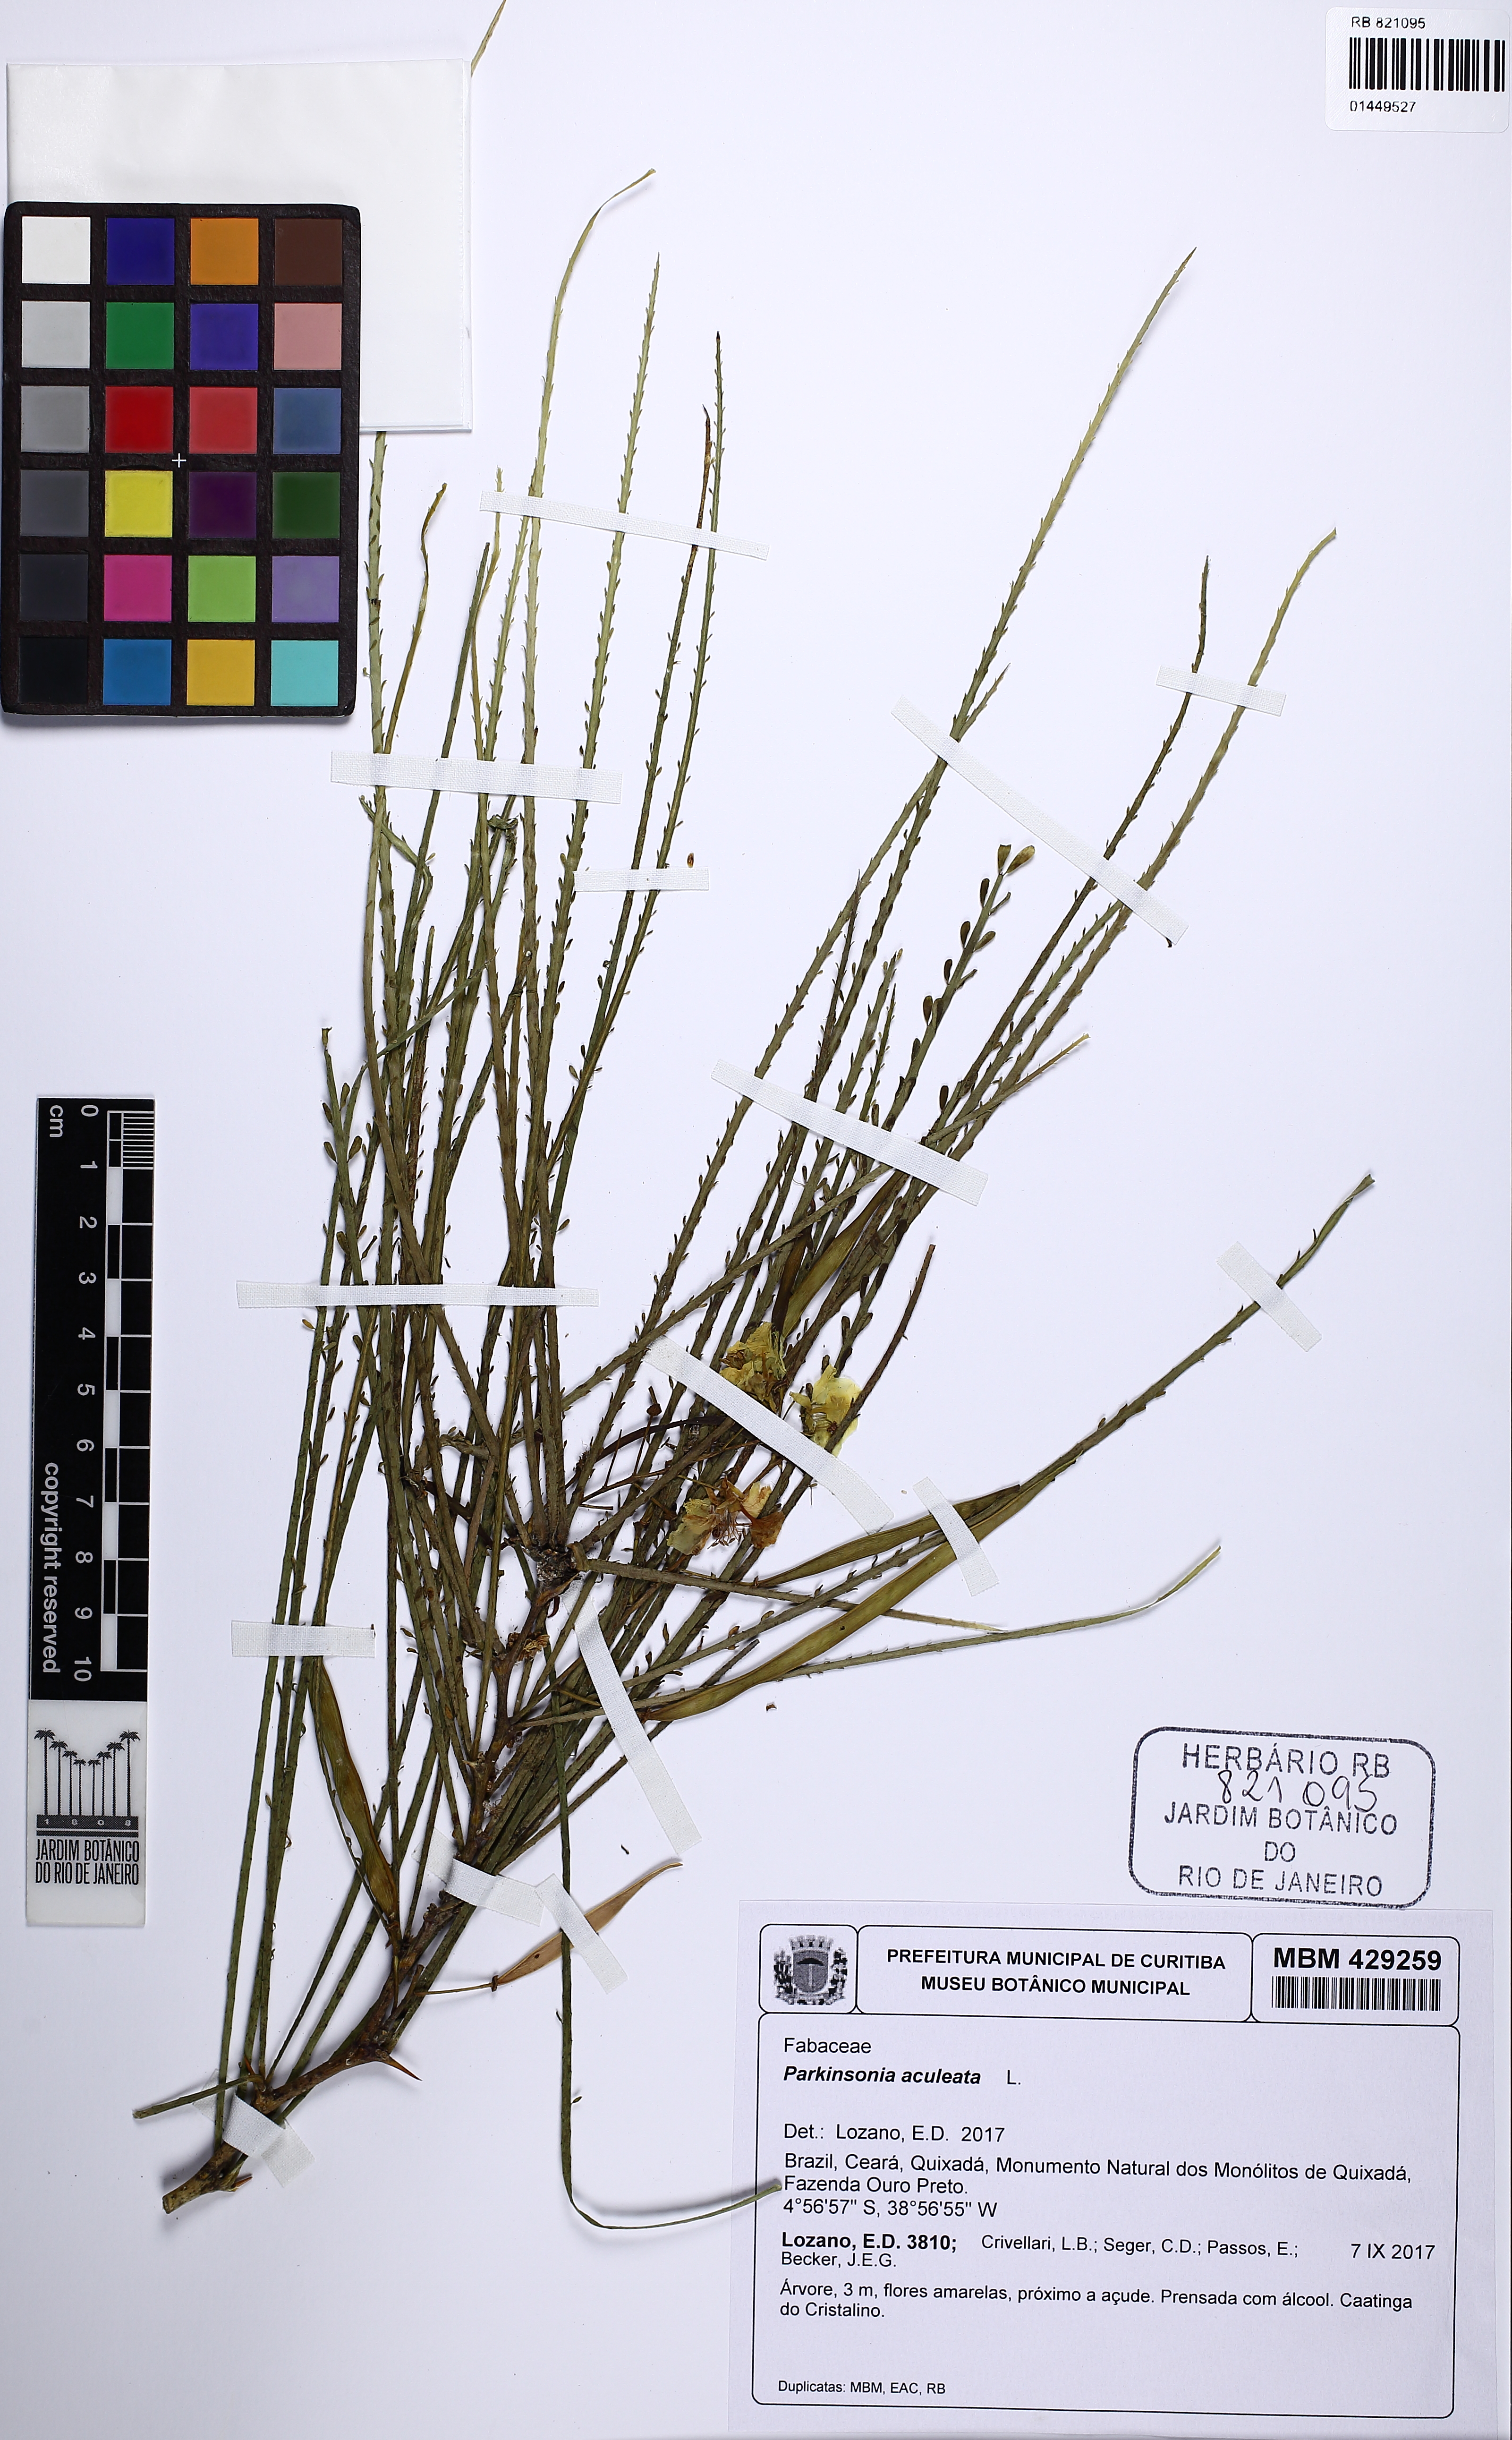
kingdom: Plantae
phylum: Tracheophyta
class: Magnoliopsida
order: Fabales
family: Fabaceae
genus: Parkinsonia
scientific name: Parkinsonia aculeata
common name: Jerusalem thorn
